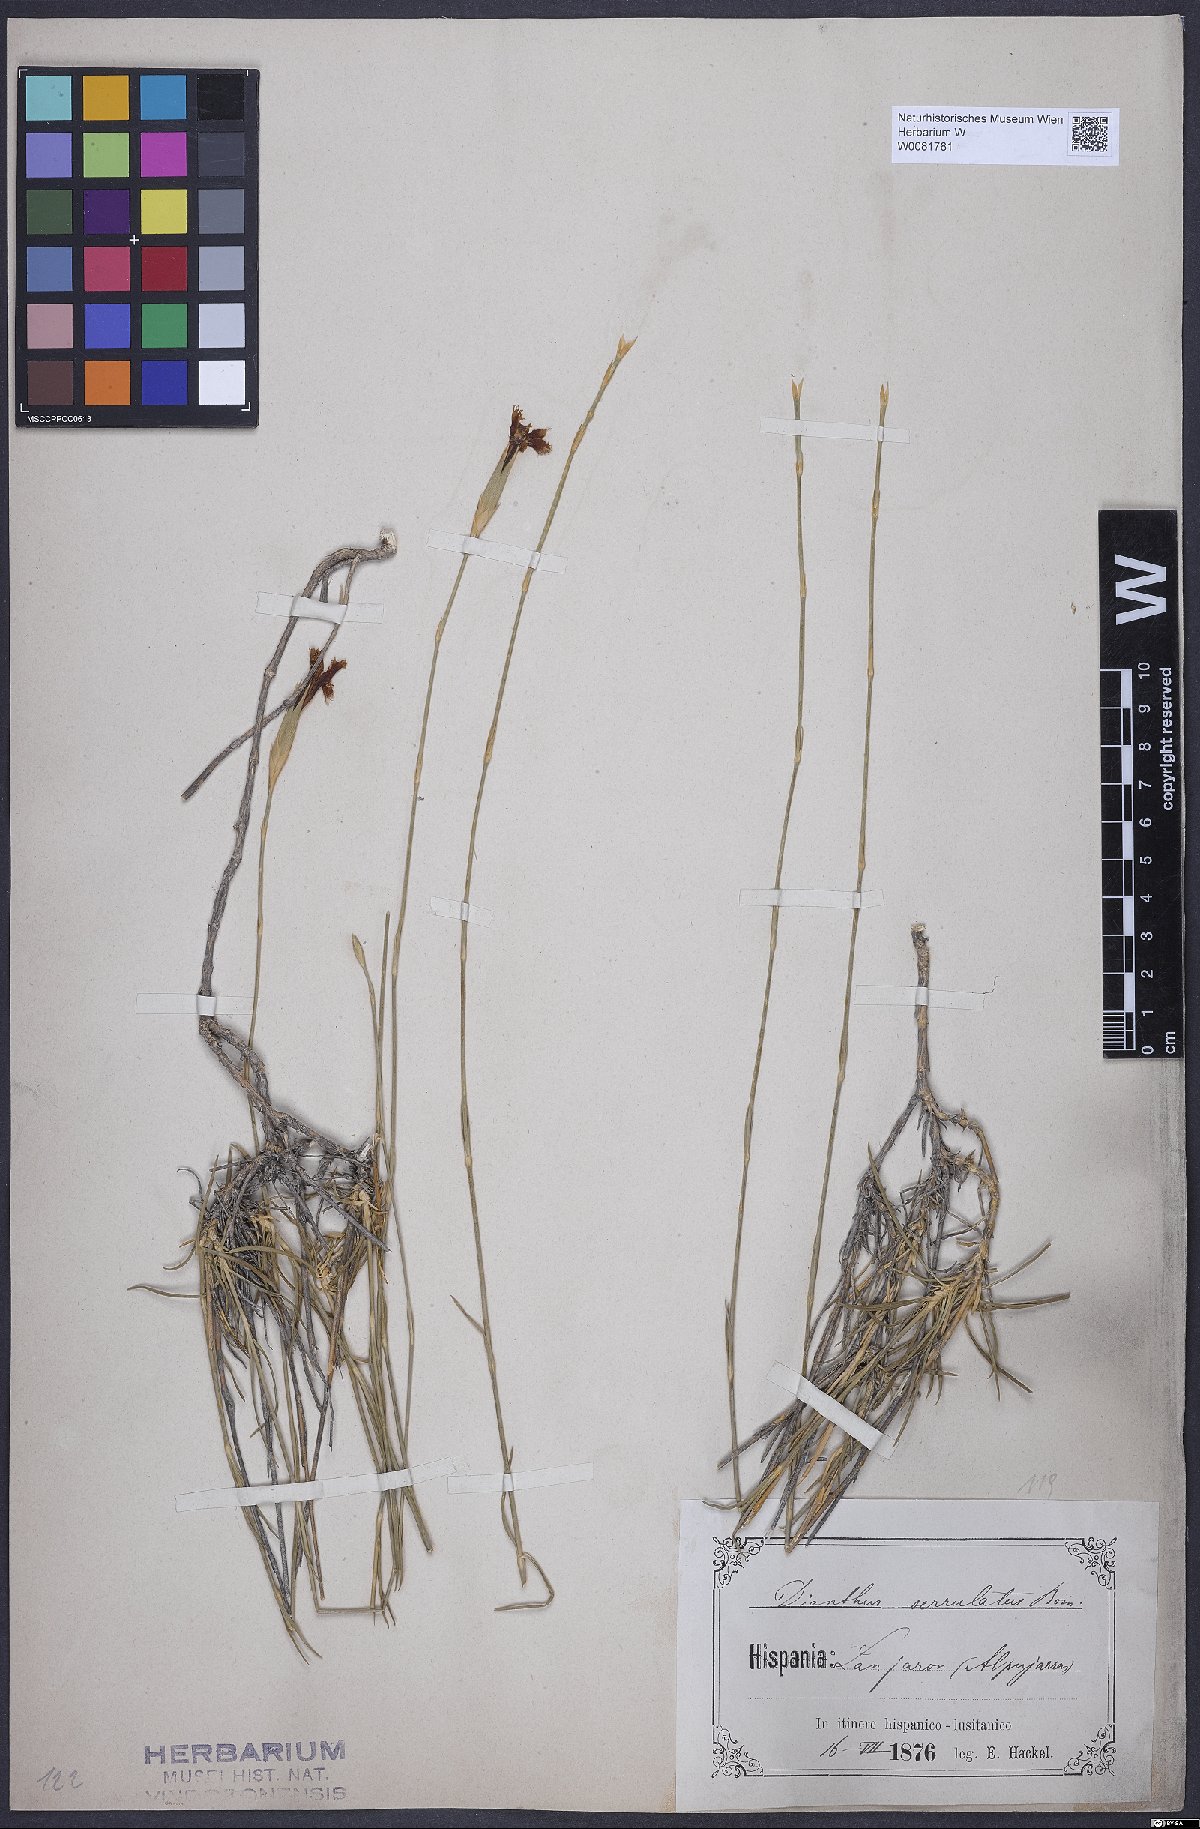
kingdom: Plantae
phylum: Tracheophyta
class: Magnoliopsida
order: Caryophyllales
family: Caryophyllaceae
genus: Dianthus
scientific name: Dianthus broteri
